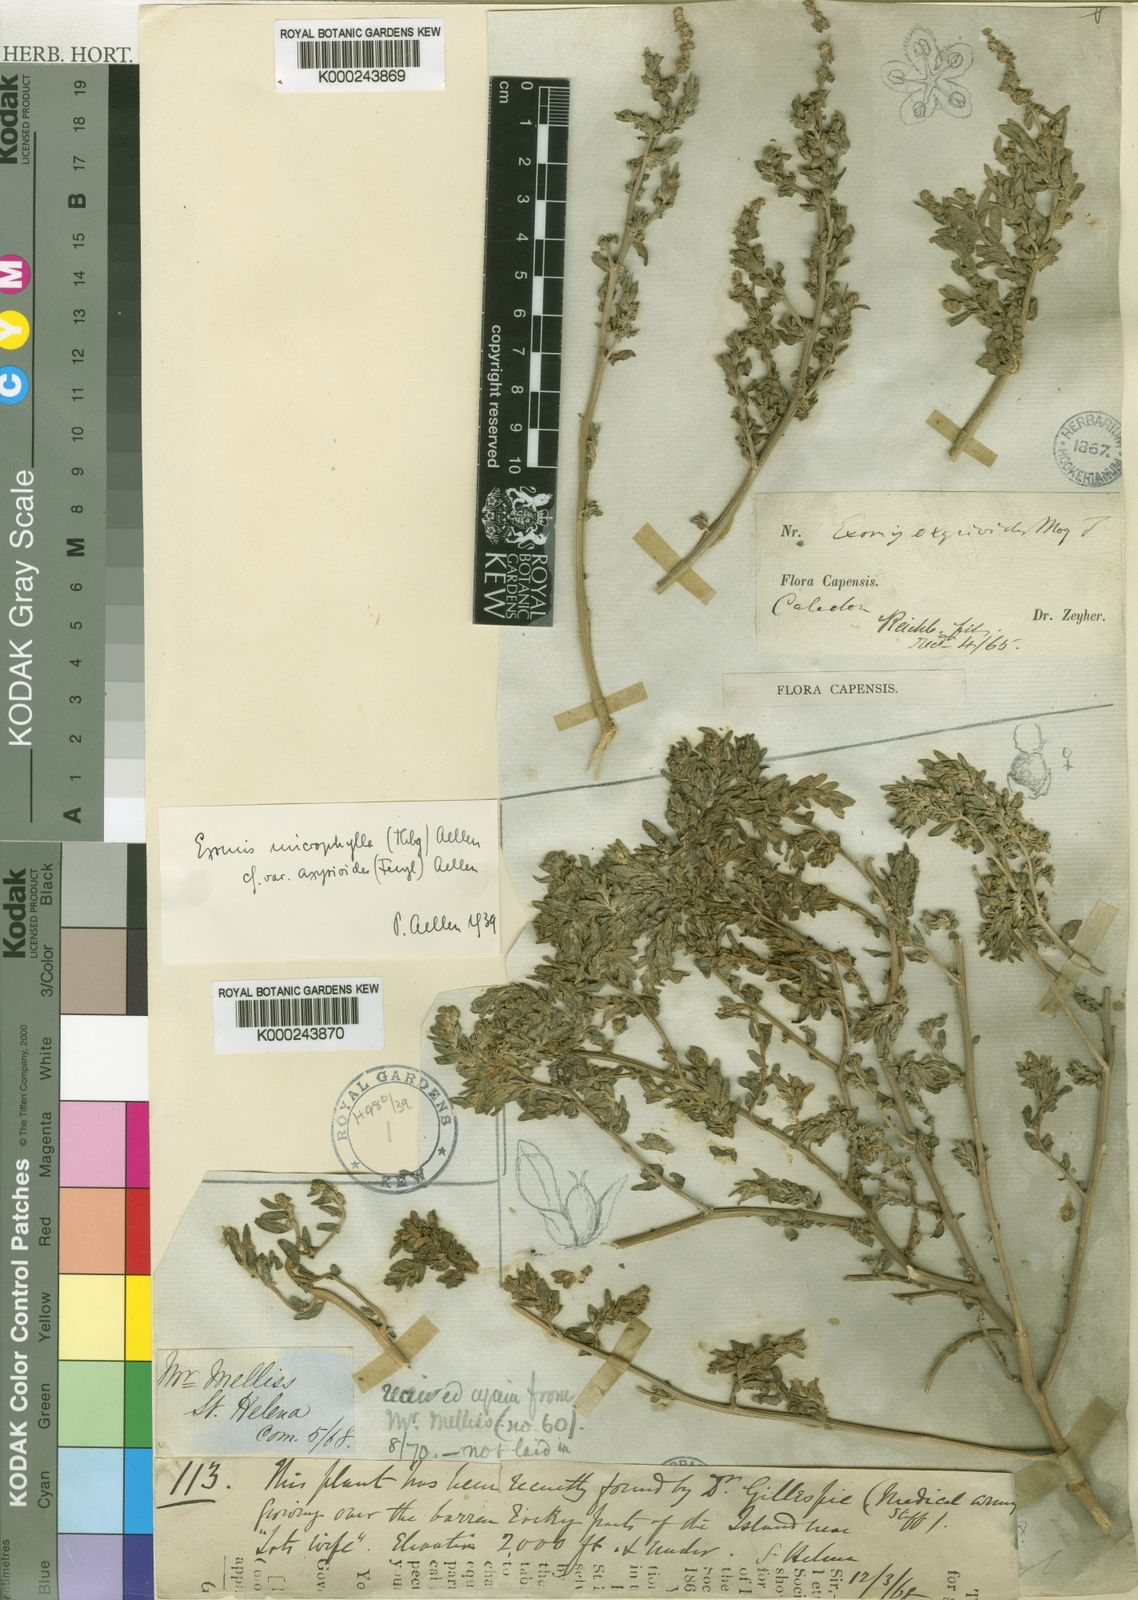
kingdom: Plantae
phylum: Tracheophyta
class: Magnoliopsida
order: Caryophyllales
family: Amaranthaceae
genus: Exomis
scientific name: Exomis microphylla
